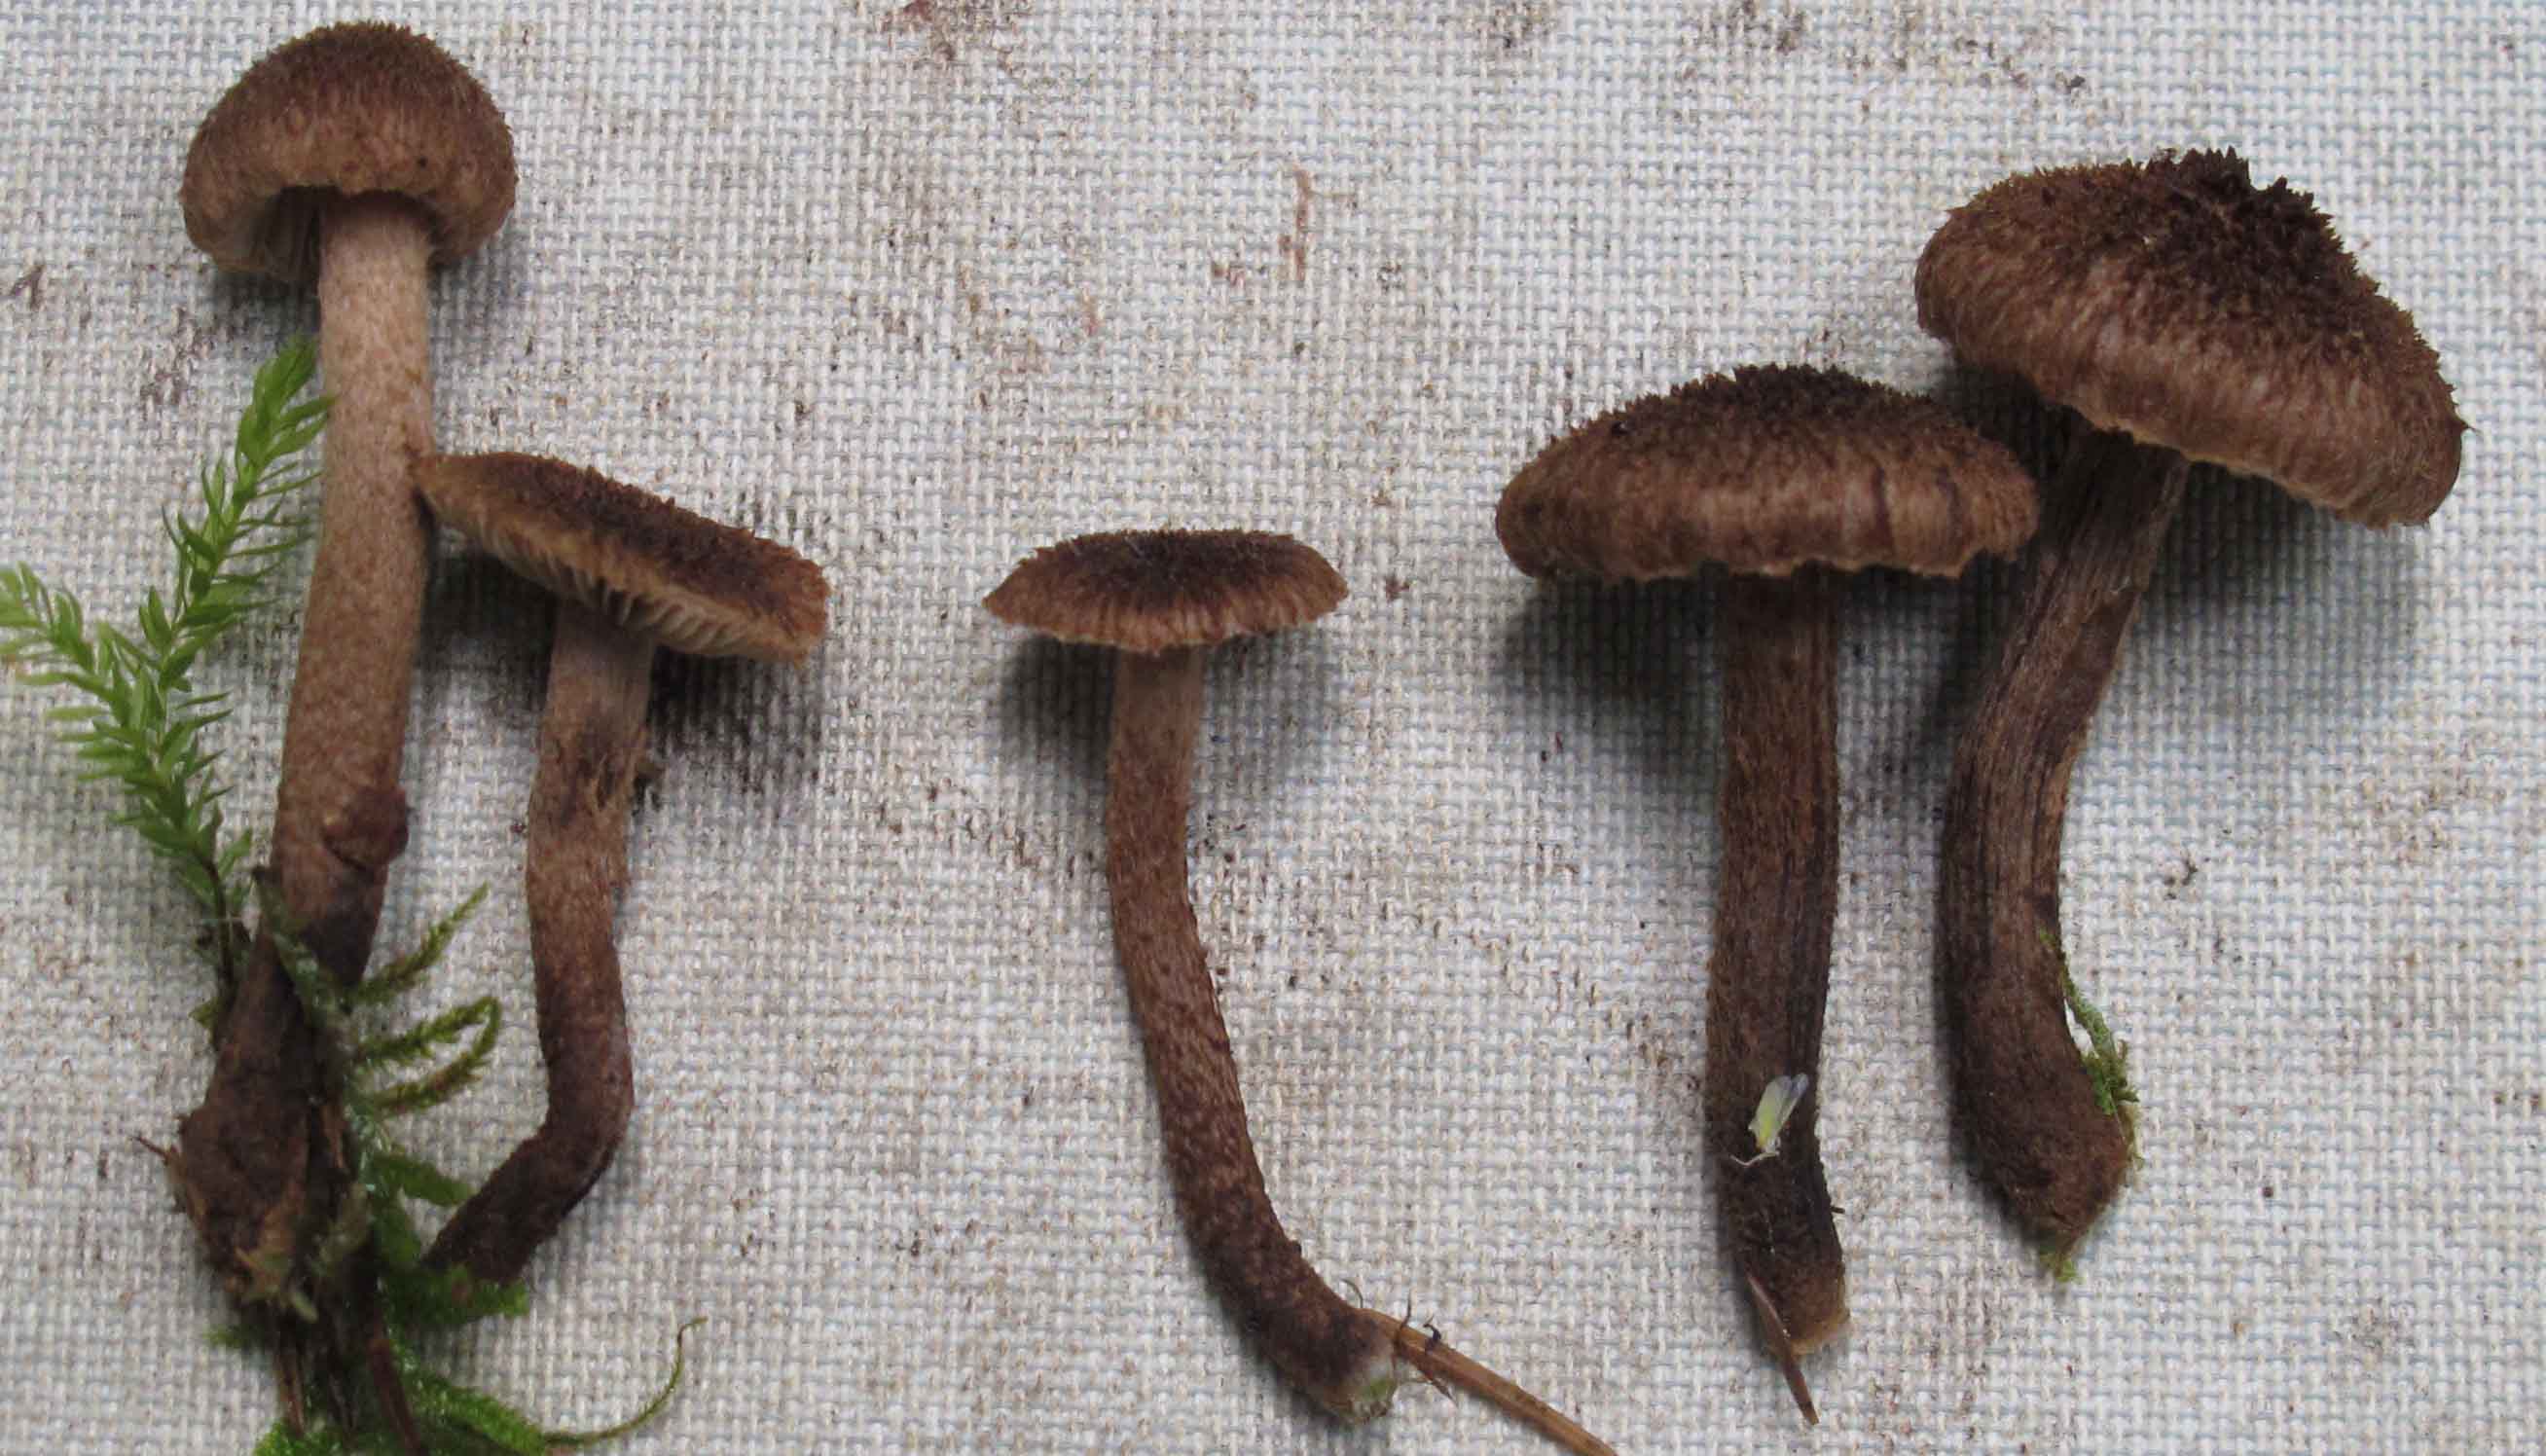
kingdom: Fungi
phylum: Basidiomycota
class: Agaricomycetes
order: Agaricales
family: Inocybaceae
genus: Inocybe
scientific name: Inocybe stellatospora
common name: spidsskællet trævlhat
